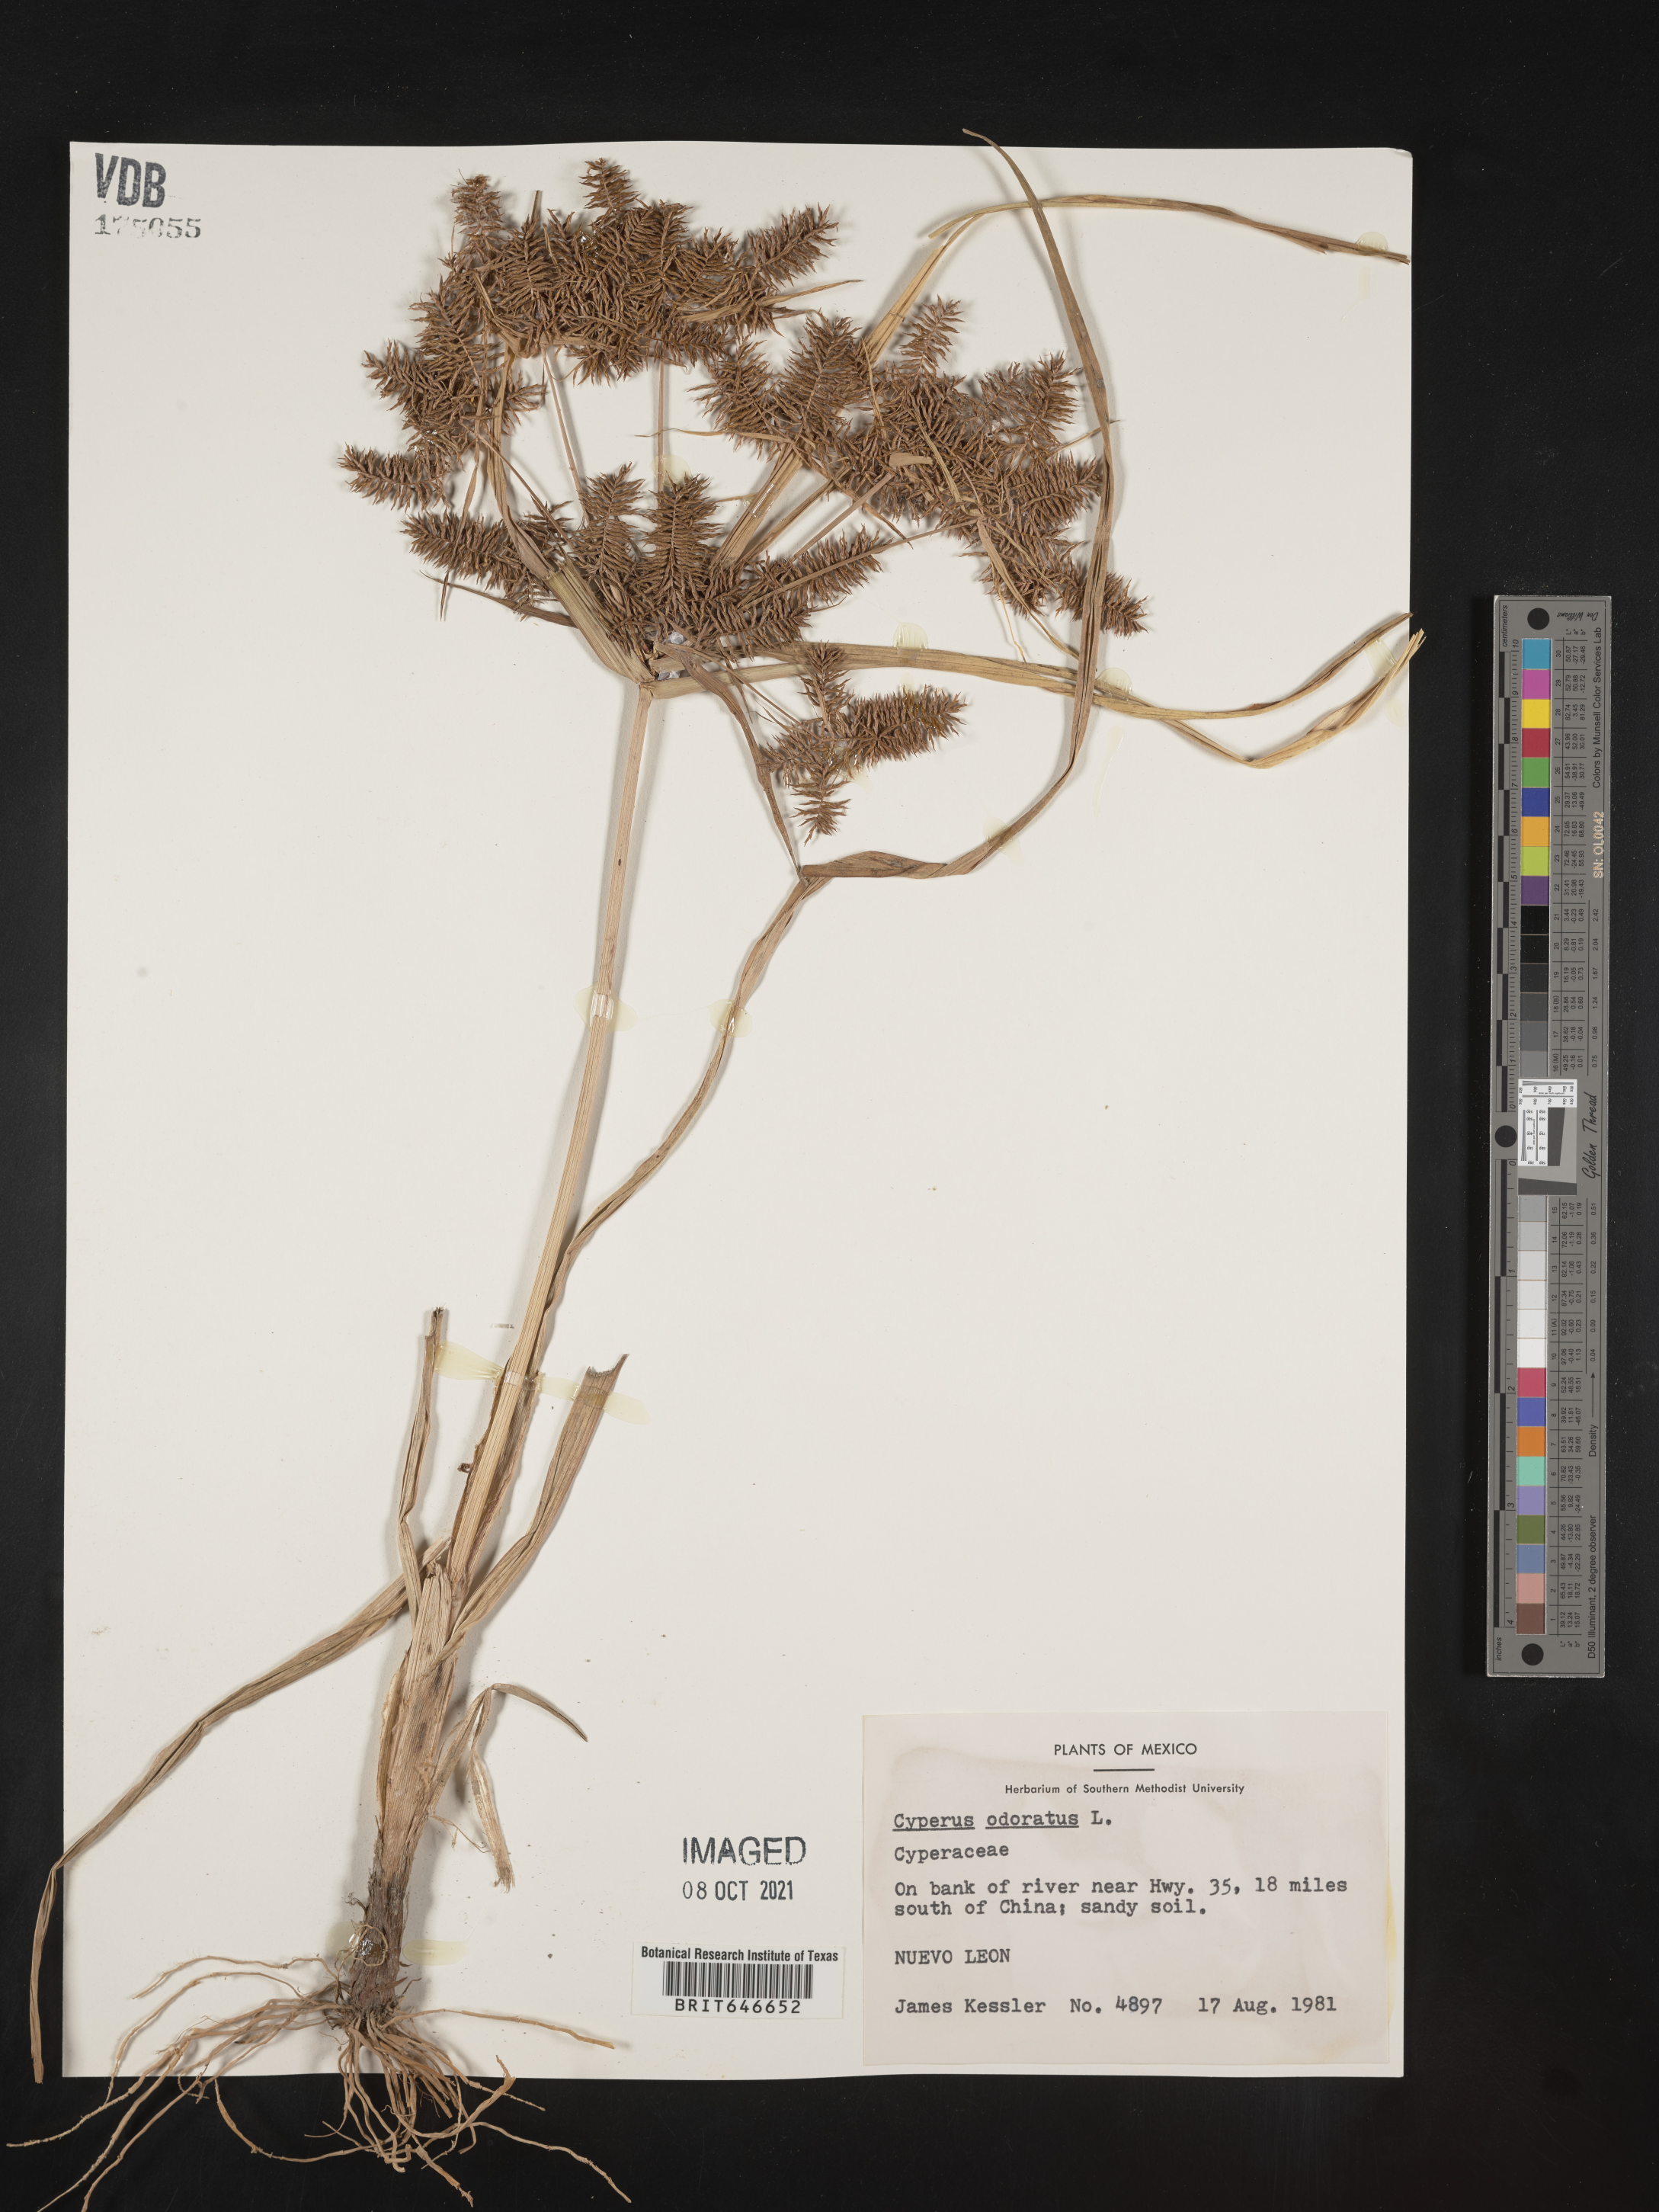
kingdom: Plantae
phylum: Tracheophyta
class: Liliopsida
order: Poales
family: Cyperaceae
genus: Cyperus
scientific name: Cyperus
